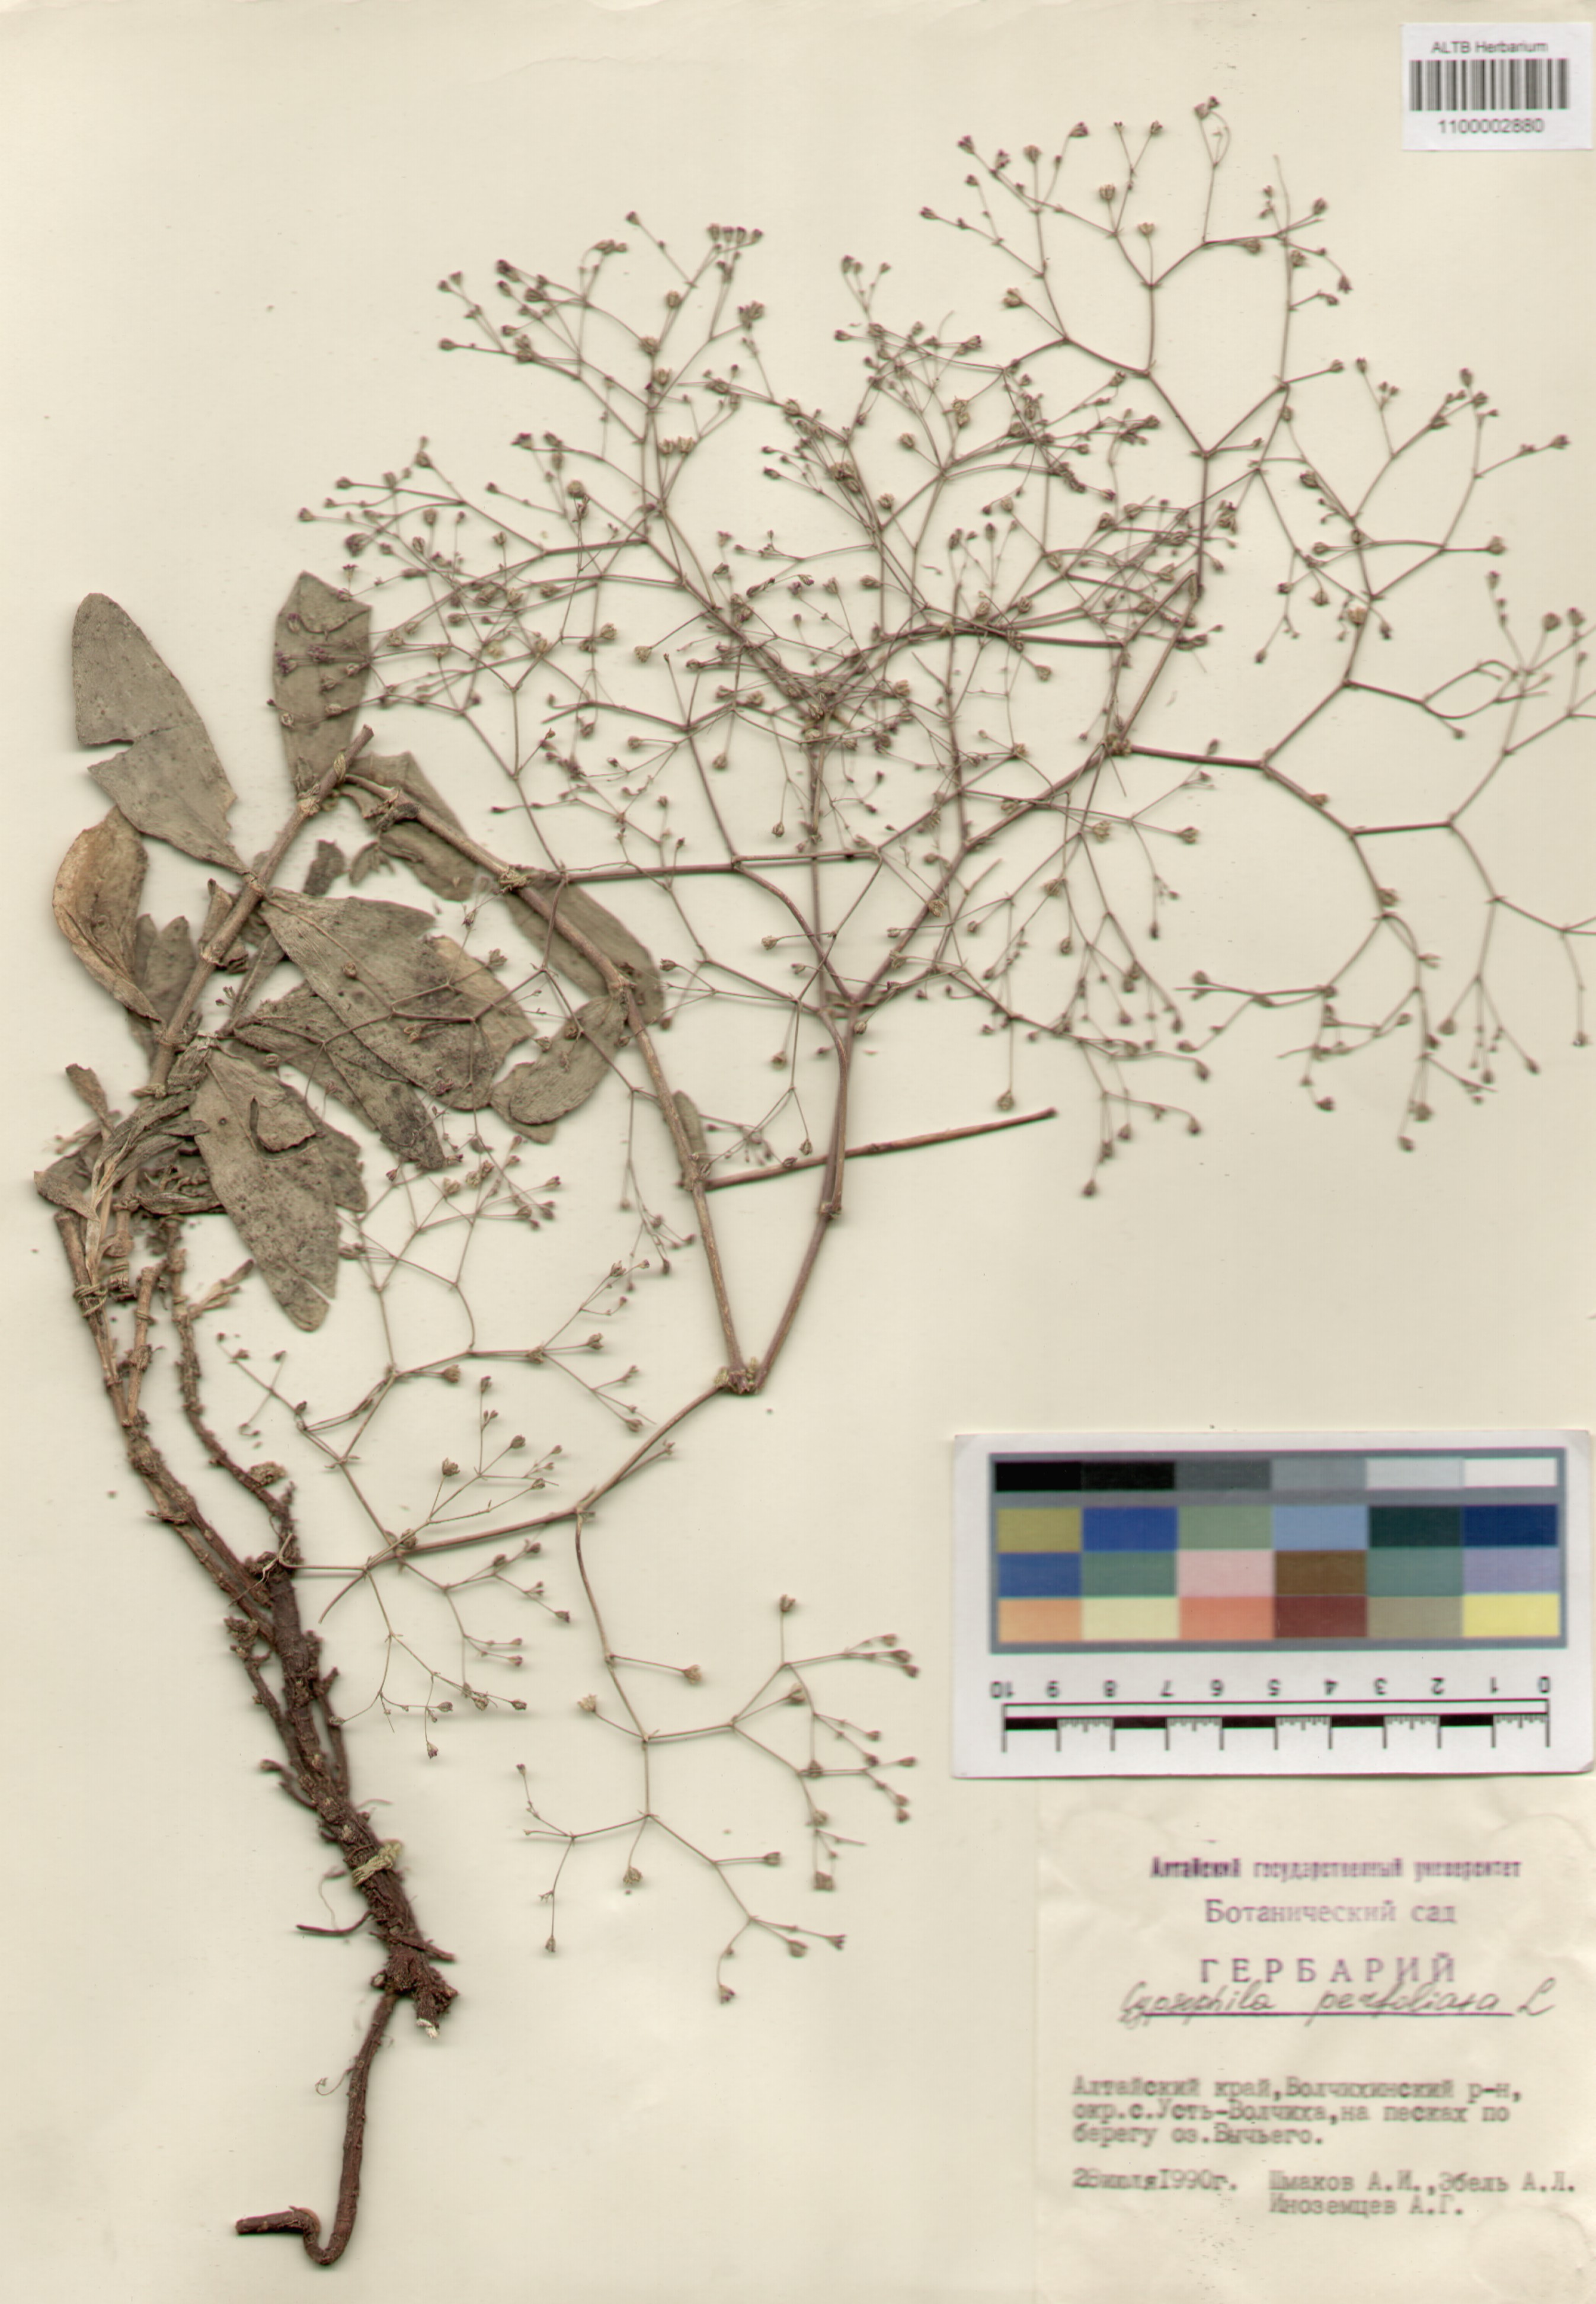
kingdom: Plantae
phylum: Tracheophyta
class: Magnoliopsida
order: Caryophyllales
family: Caryophyllaceae
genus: Gypsophila
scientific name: Gypsophila perfoliata
